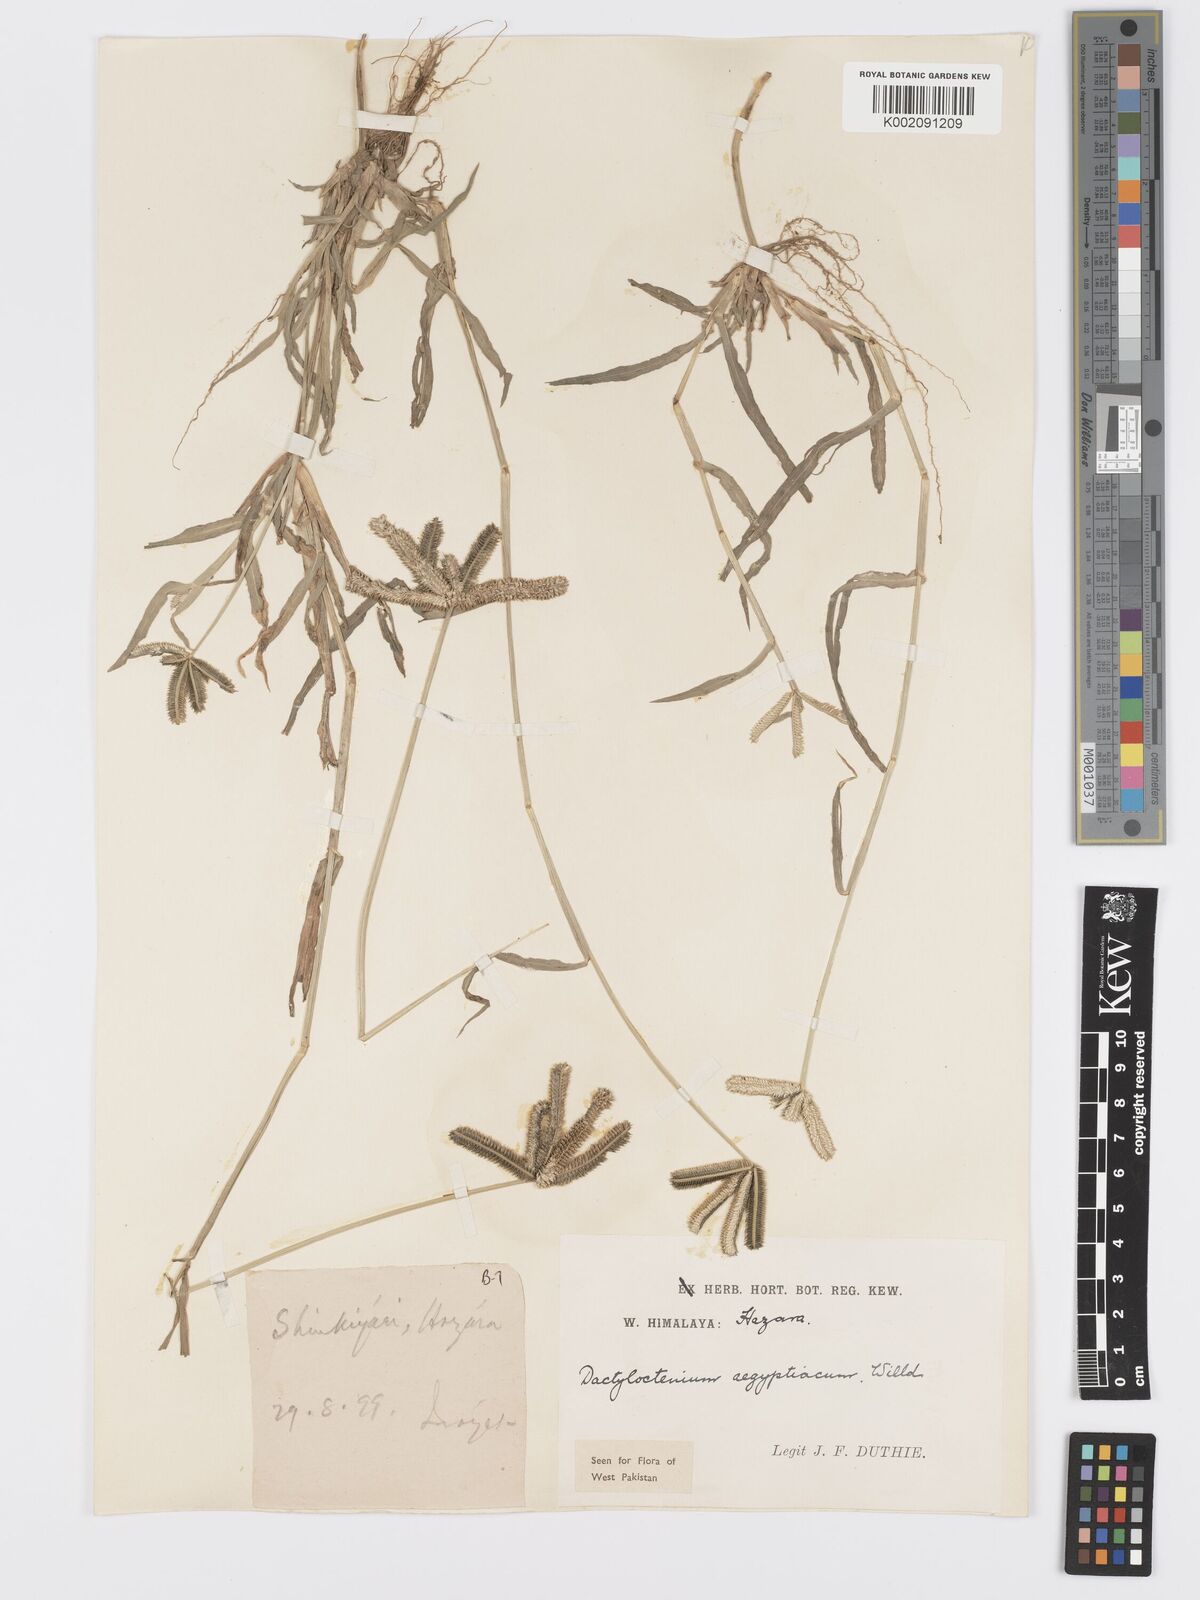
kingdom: Plantae
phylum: Tracheophyta
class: Liliopsida
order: Poales
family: Poaceae
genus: Dactyloctenium
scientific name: Dactyloctenium aegyptium
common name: Egyptian grass
